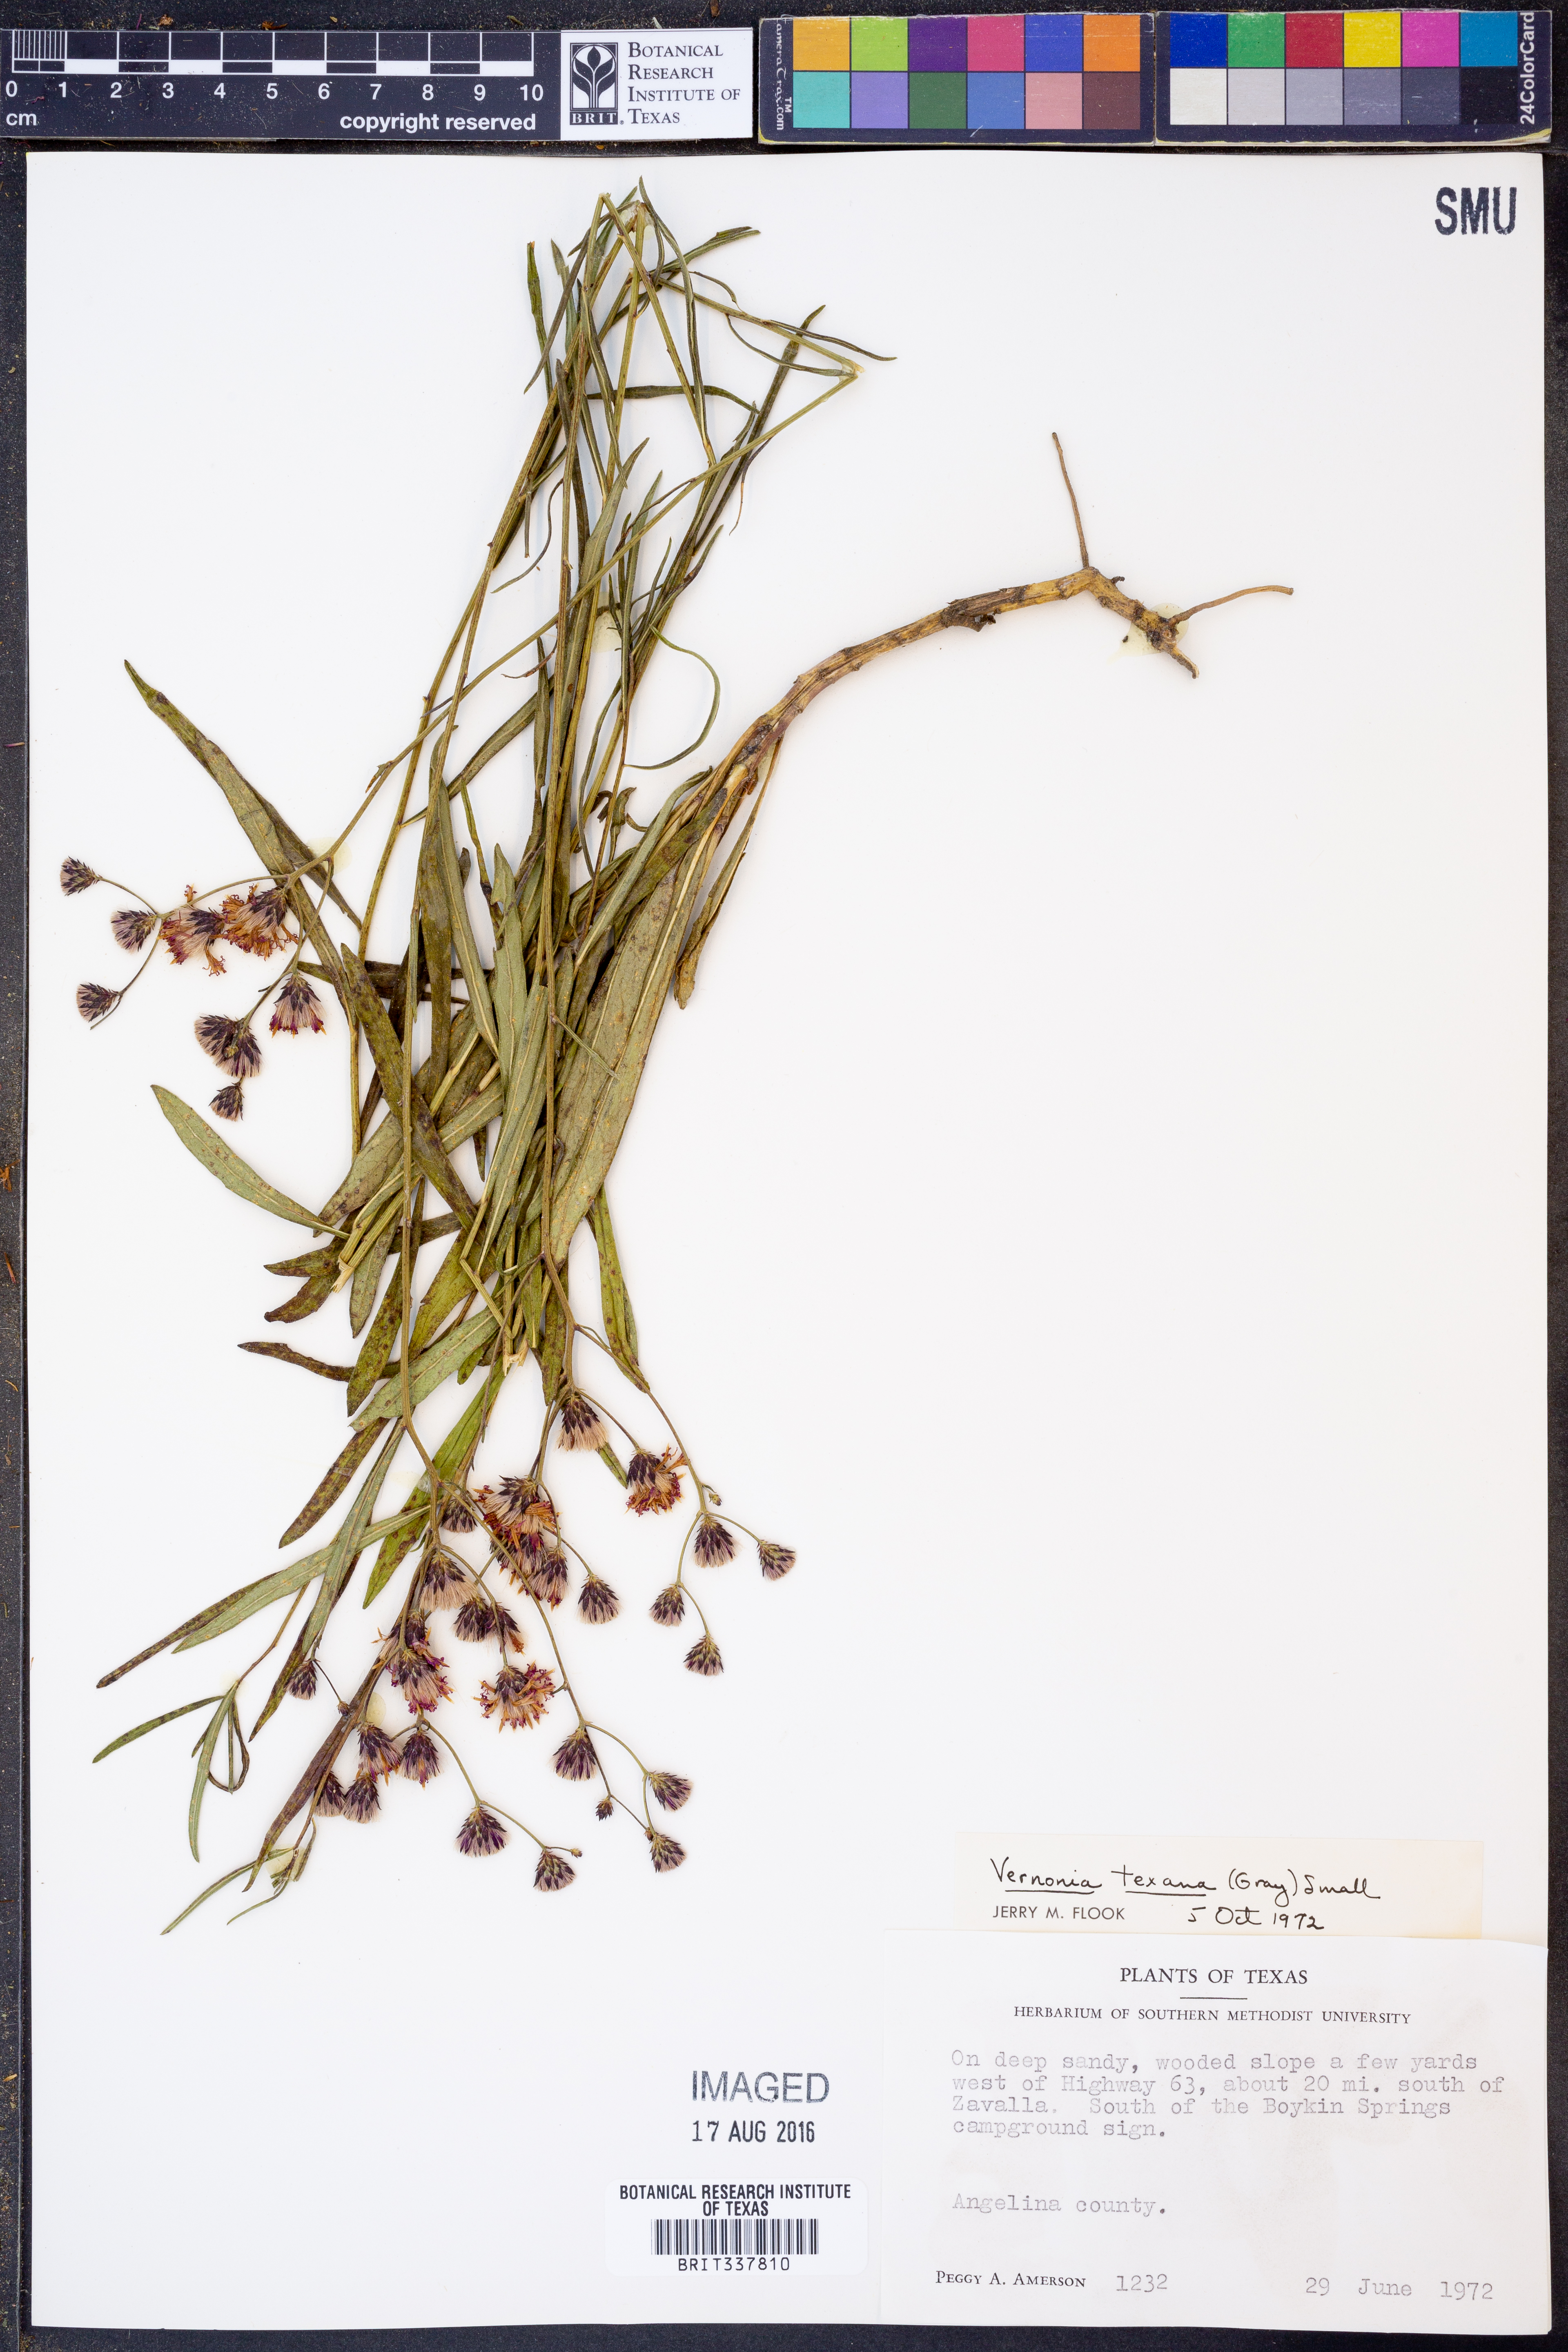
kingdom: Plantae
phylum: Tracheophyta
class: Magnoliopsida
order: Asterales
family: Asteraceae
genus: Vernonia
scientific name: Vernonia texana
